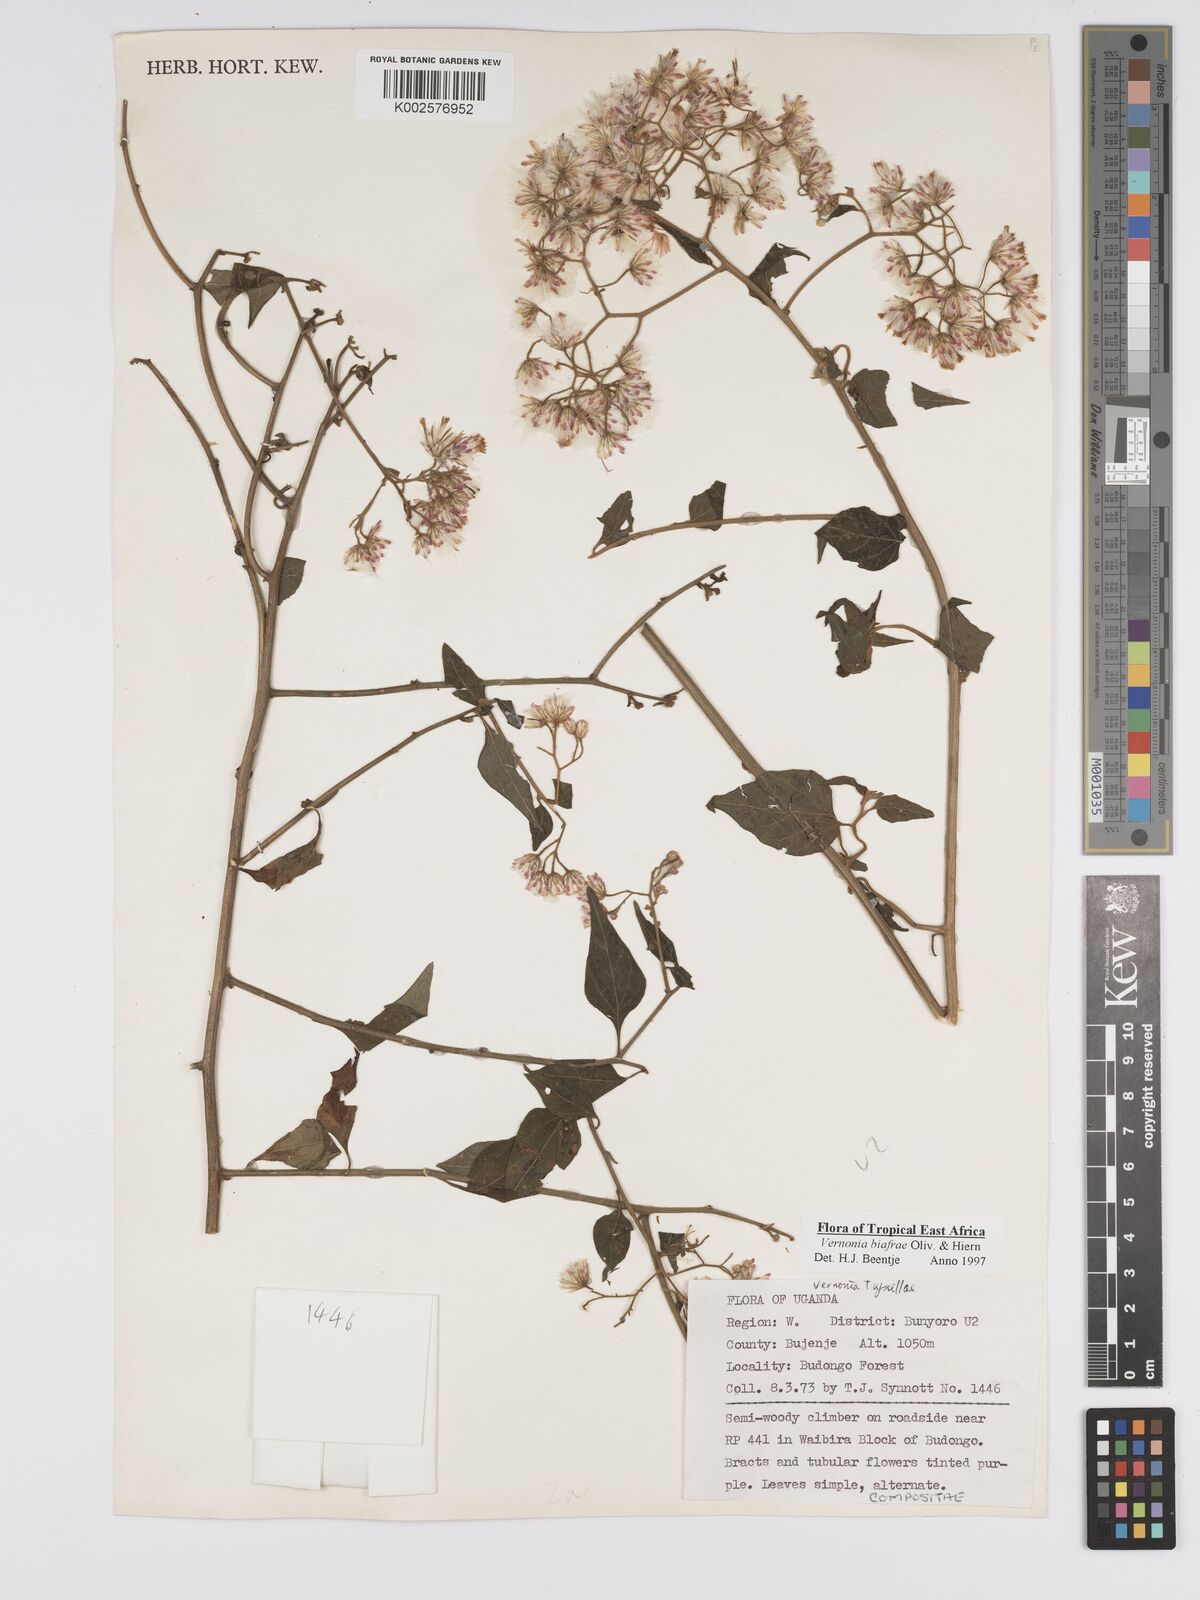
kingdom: Plantae
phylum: Tracheophyta
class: Magnoliopsida
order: Asterales
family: Asteraceae
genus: Distephanus
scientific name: Distephanus biafrae
